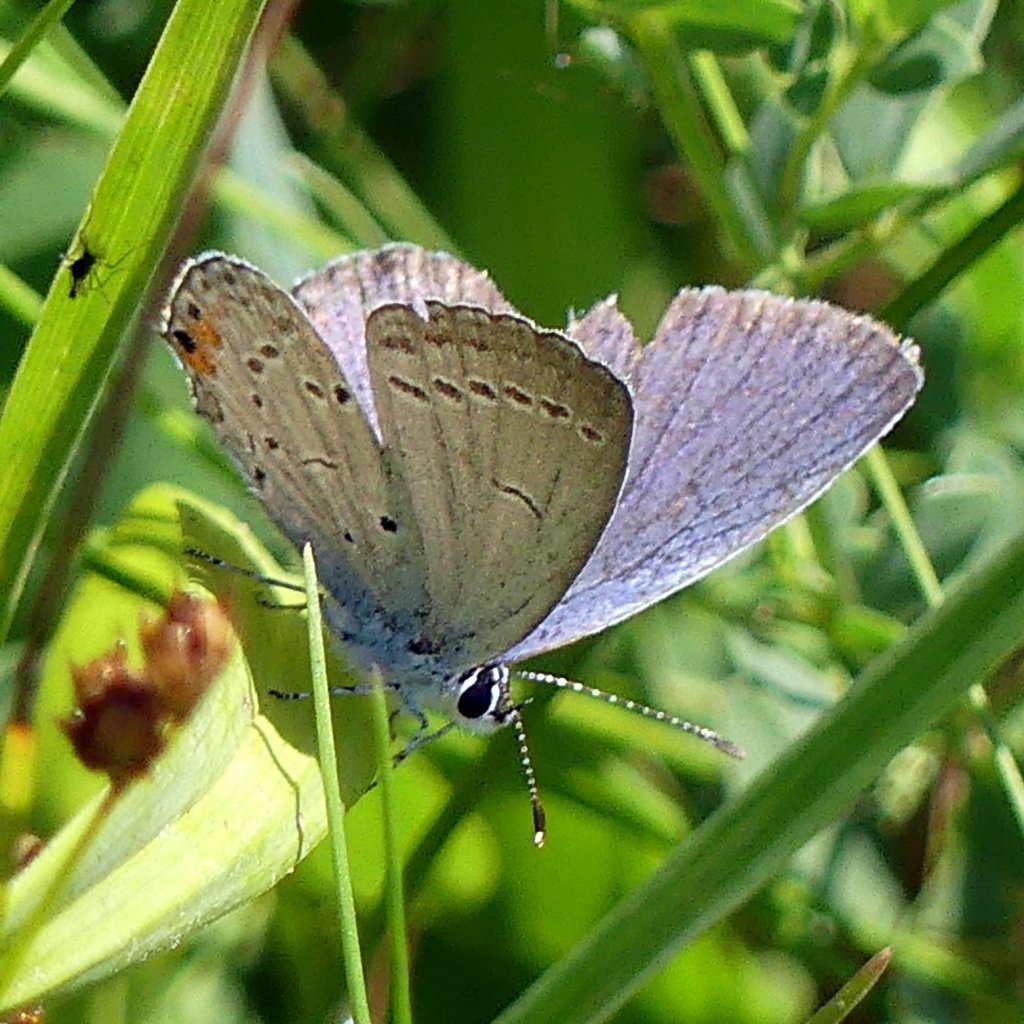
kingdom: Animalia
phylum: Arthropoda
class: Insecta
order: Lepidoptera
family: Lycaenidae
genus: Elkalyce
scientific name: Elkalyce comyntas
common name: Eastern Tailed-Blue
